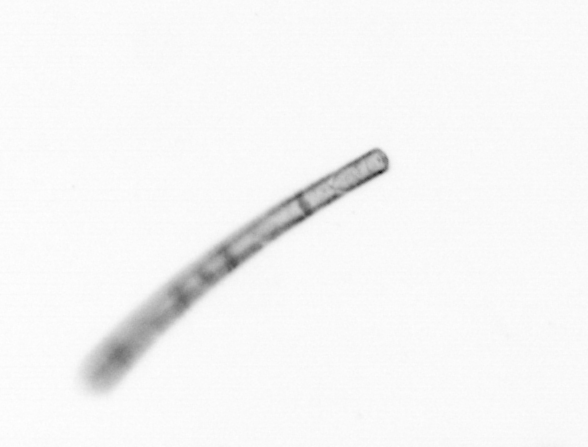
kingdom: Chromista
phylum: Ochrophyta
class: Bacillariophyceae
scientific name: Bacillariophyceae
